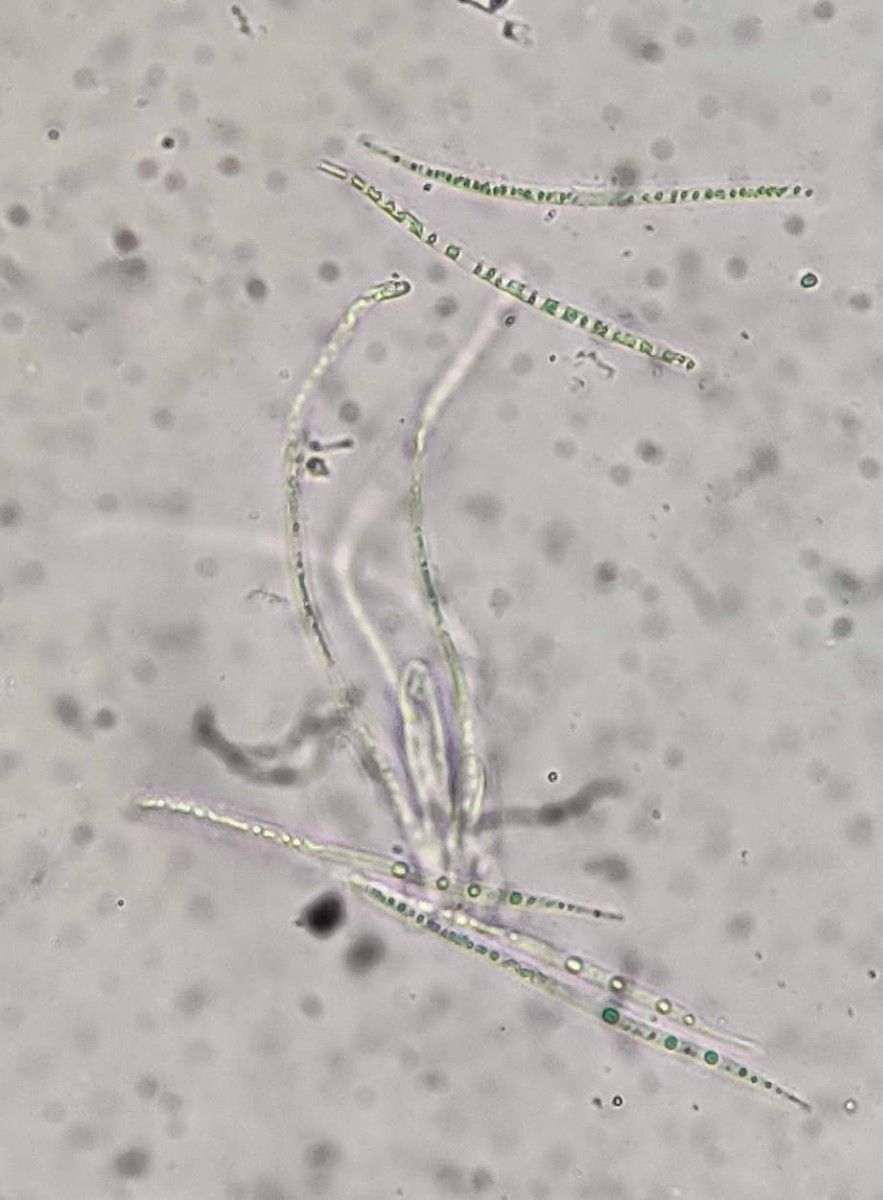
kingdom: Fungi
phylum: Ascomycota
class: Leotiomycetes
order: Rhytismatales
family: Rhytismataceae
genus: Lophodermium
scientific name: Lophodermium piceae
